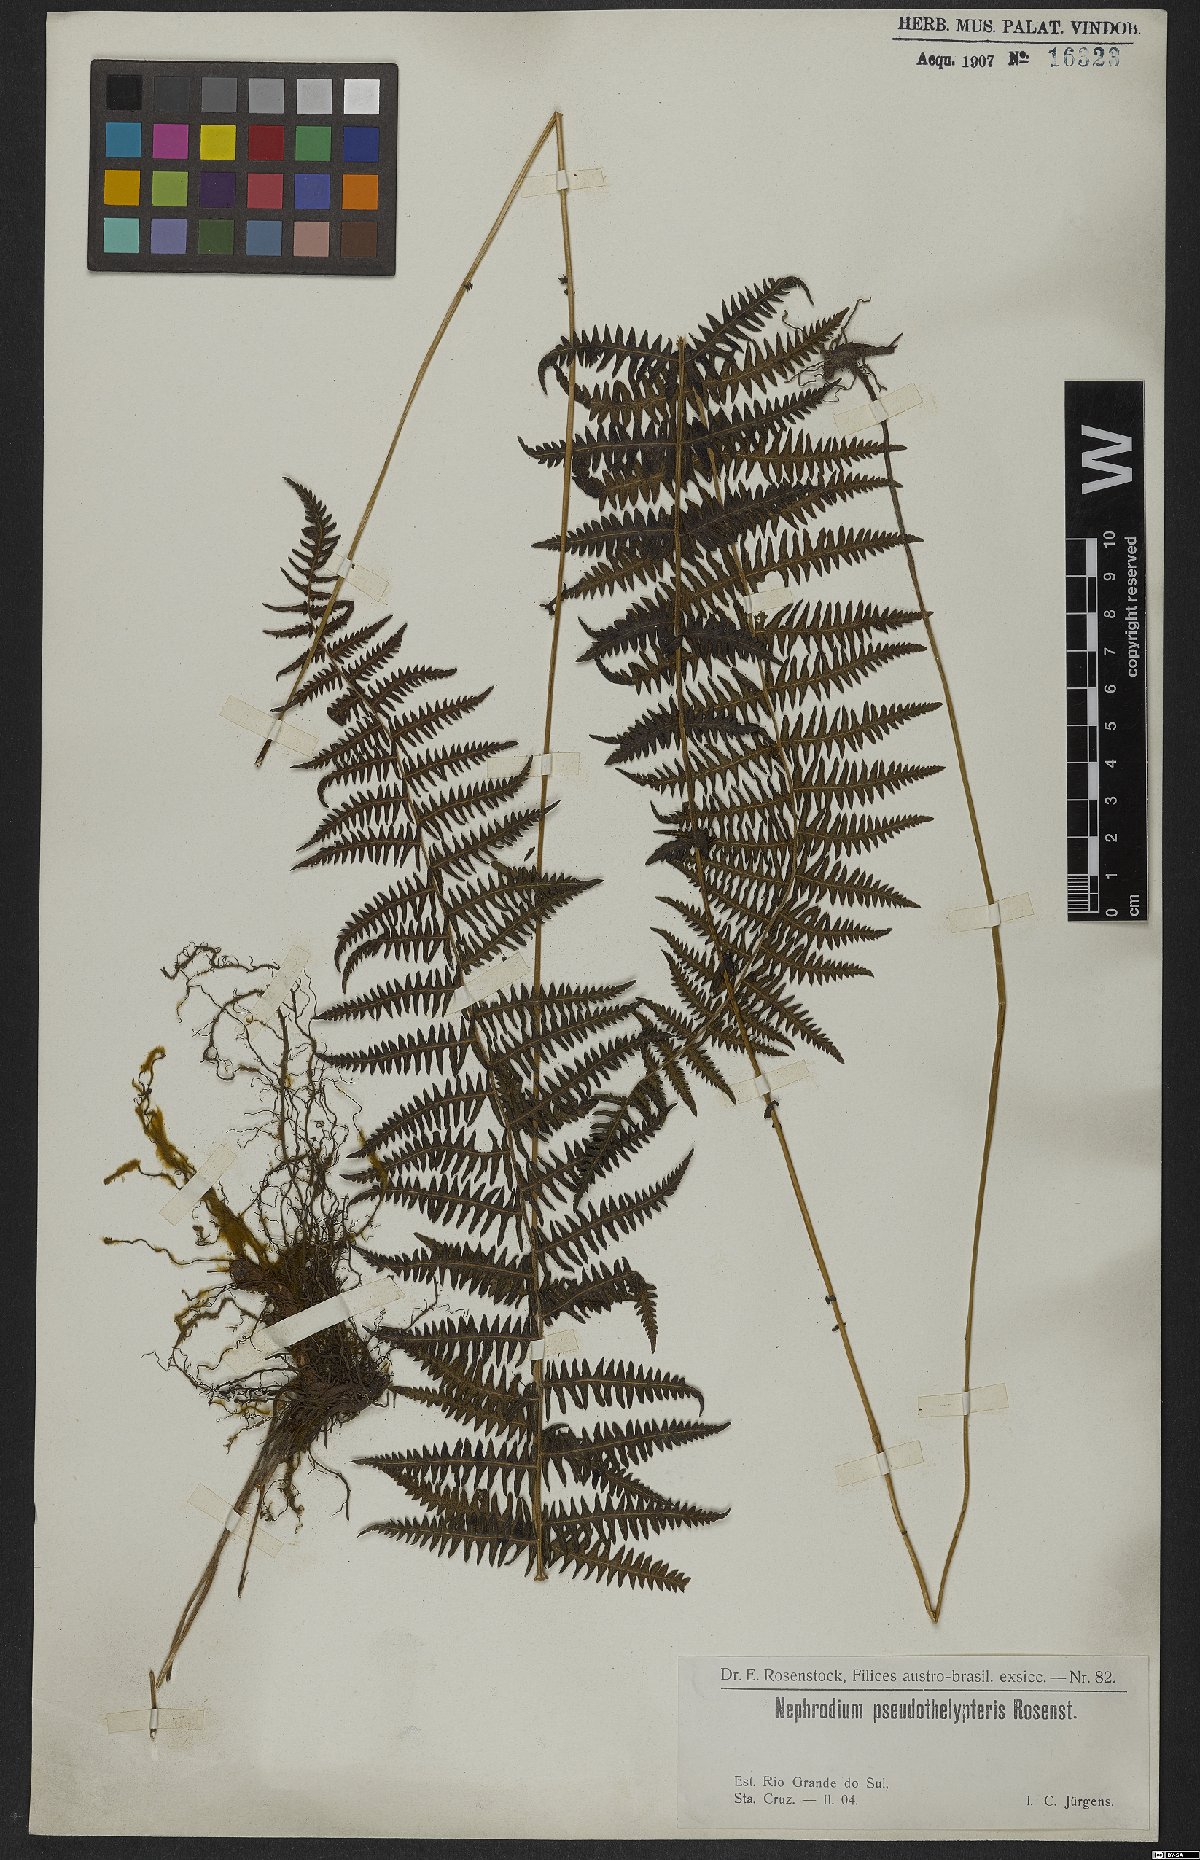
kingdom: Plantae
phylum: Tracheophyta
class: Polypodiopsida
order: Polypodiales
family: Thelypteridaceae
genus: Amauropelta
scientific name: Amauropelta rivularioides
